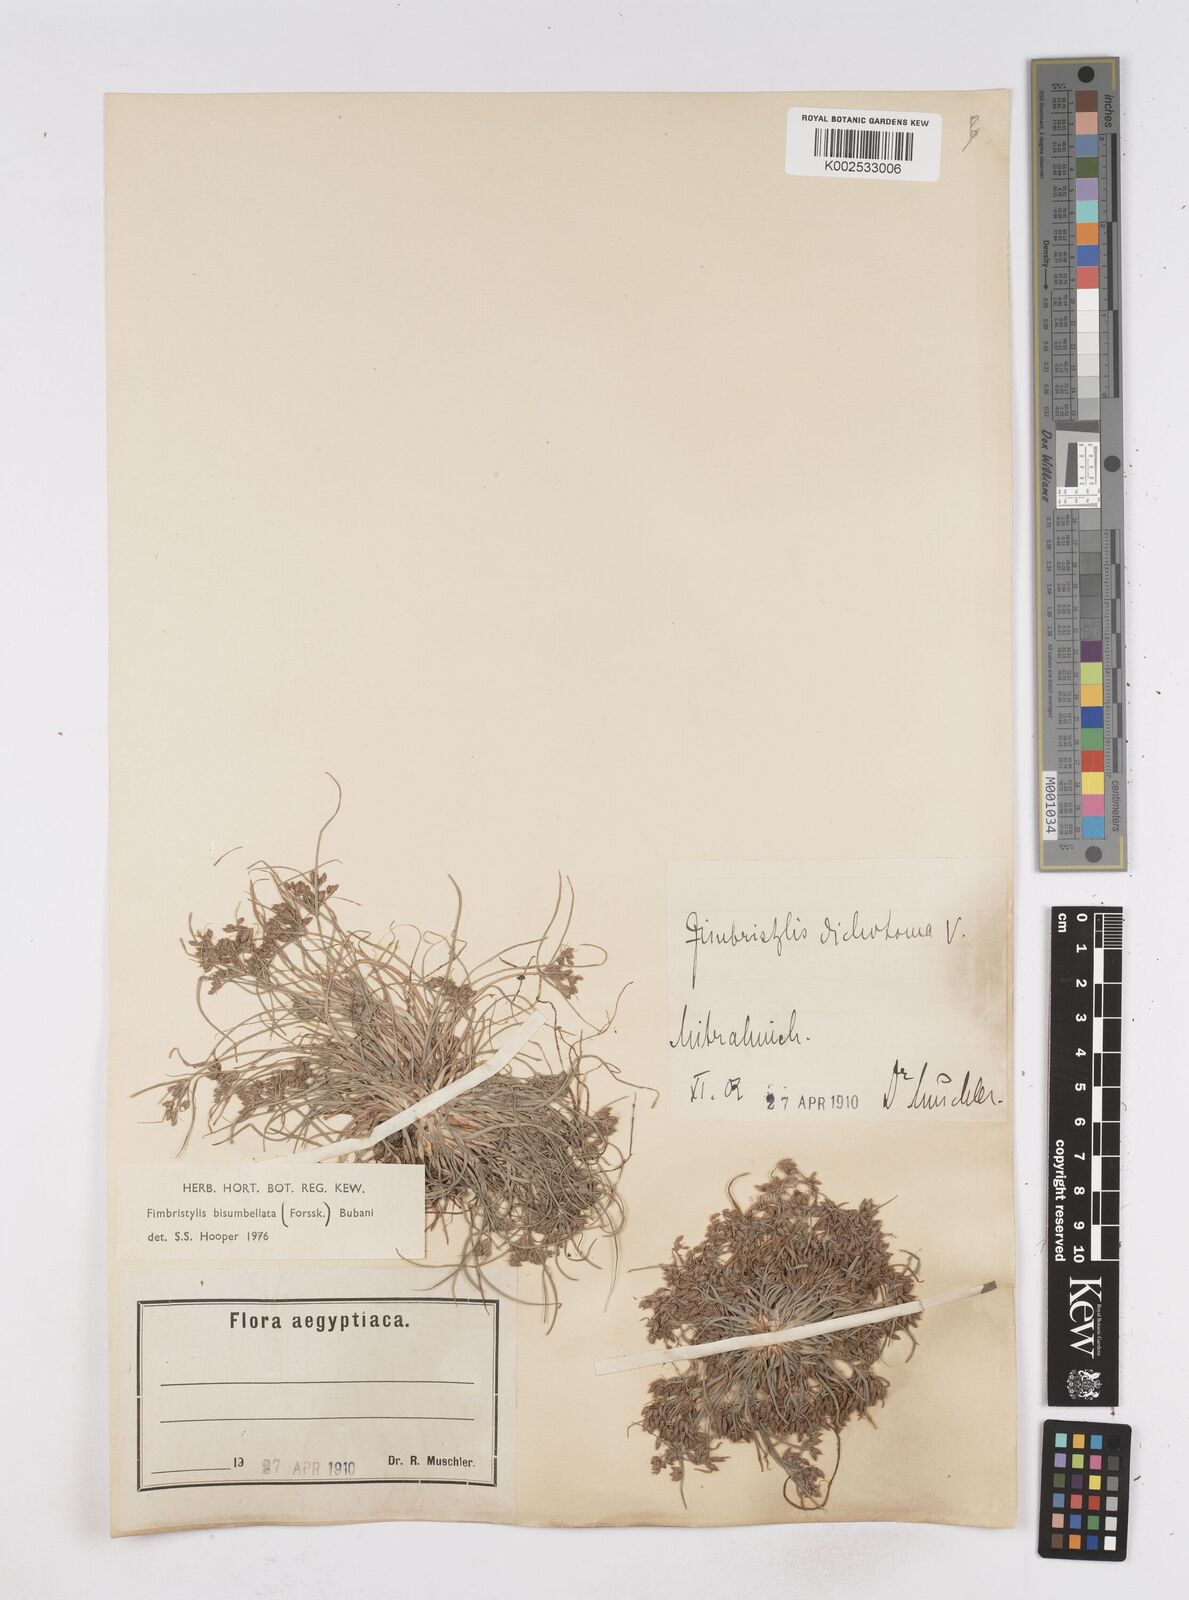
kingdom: Plantae
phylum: Tracheophyta
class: Liliopsida
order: Poales
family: Cyperaceae
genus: Fimbristylis
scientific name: Fimbristylis bisumbellata
